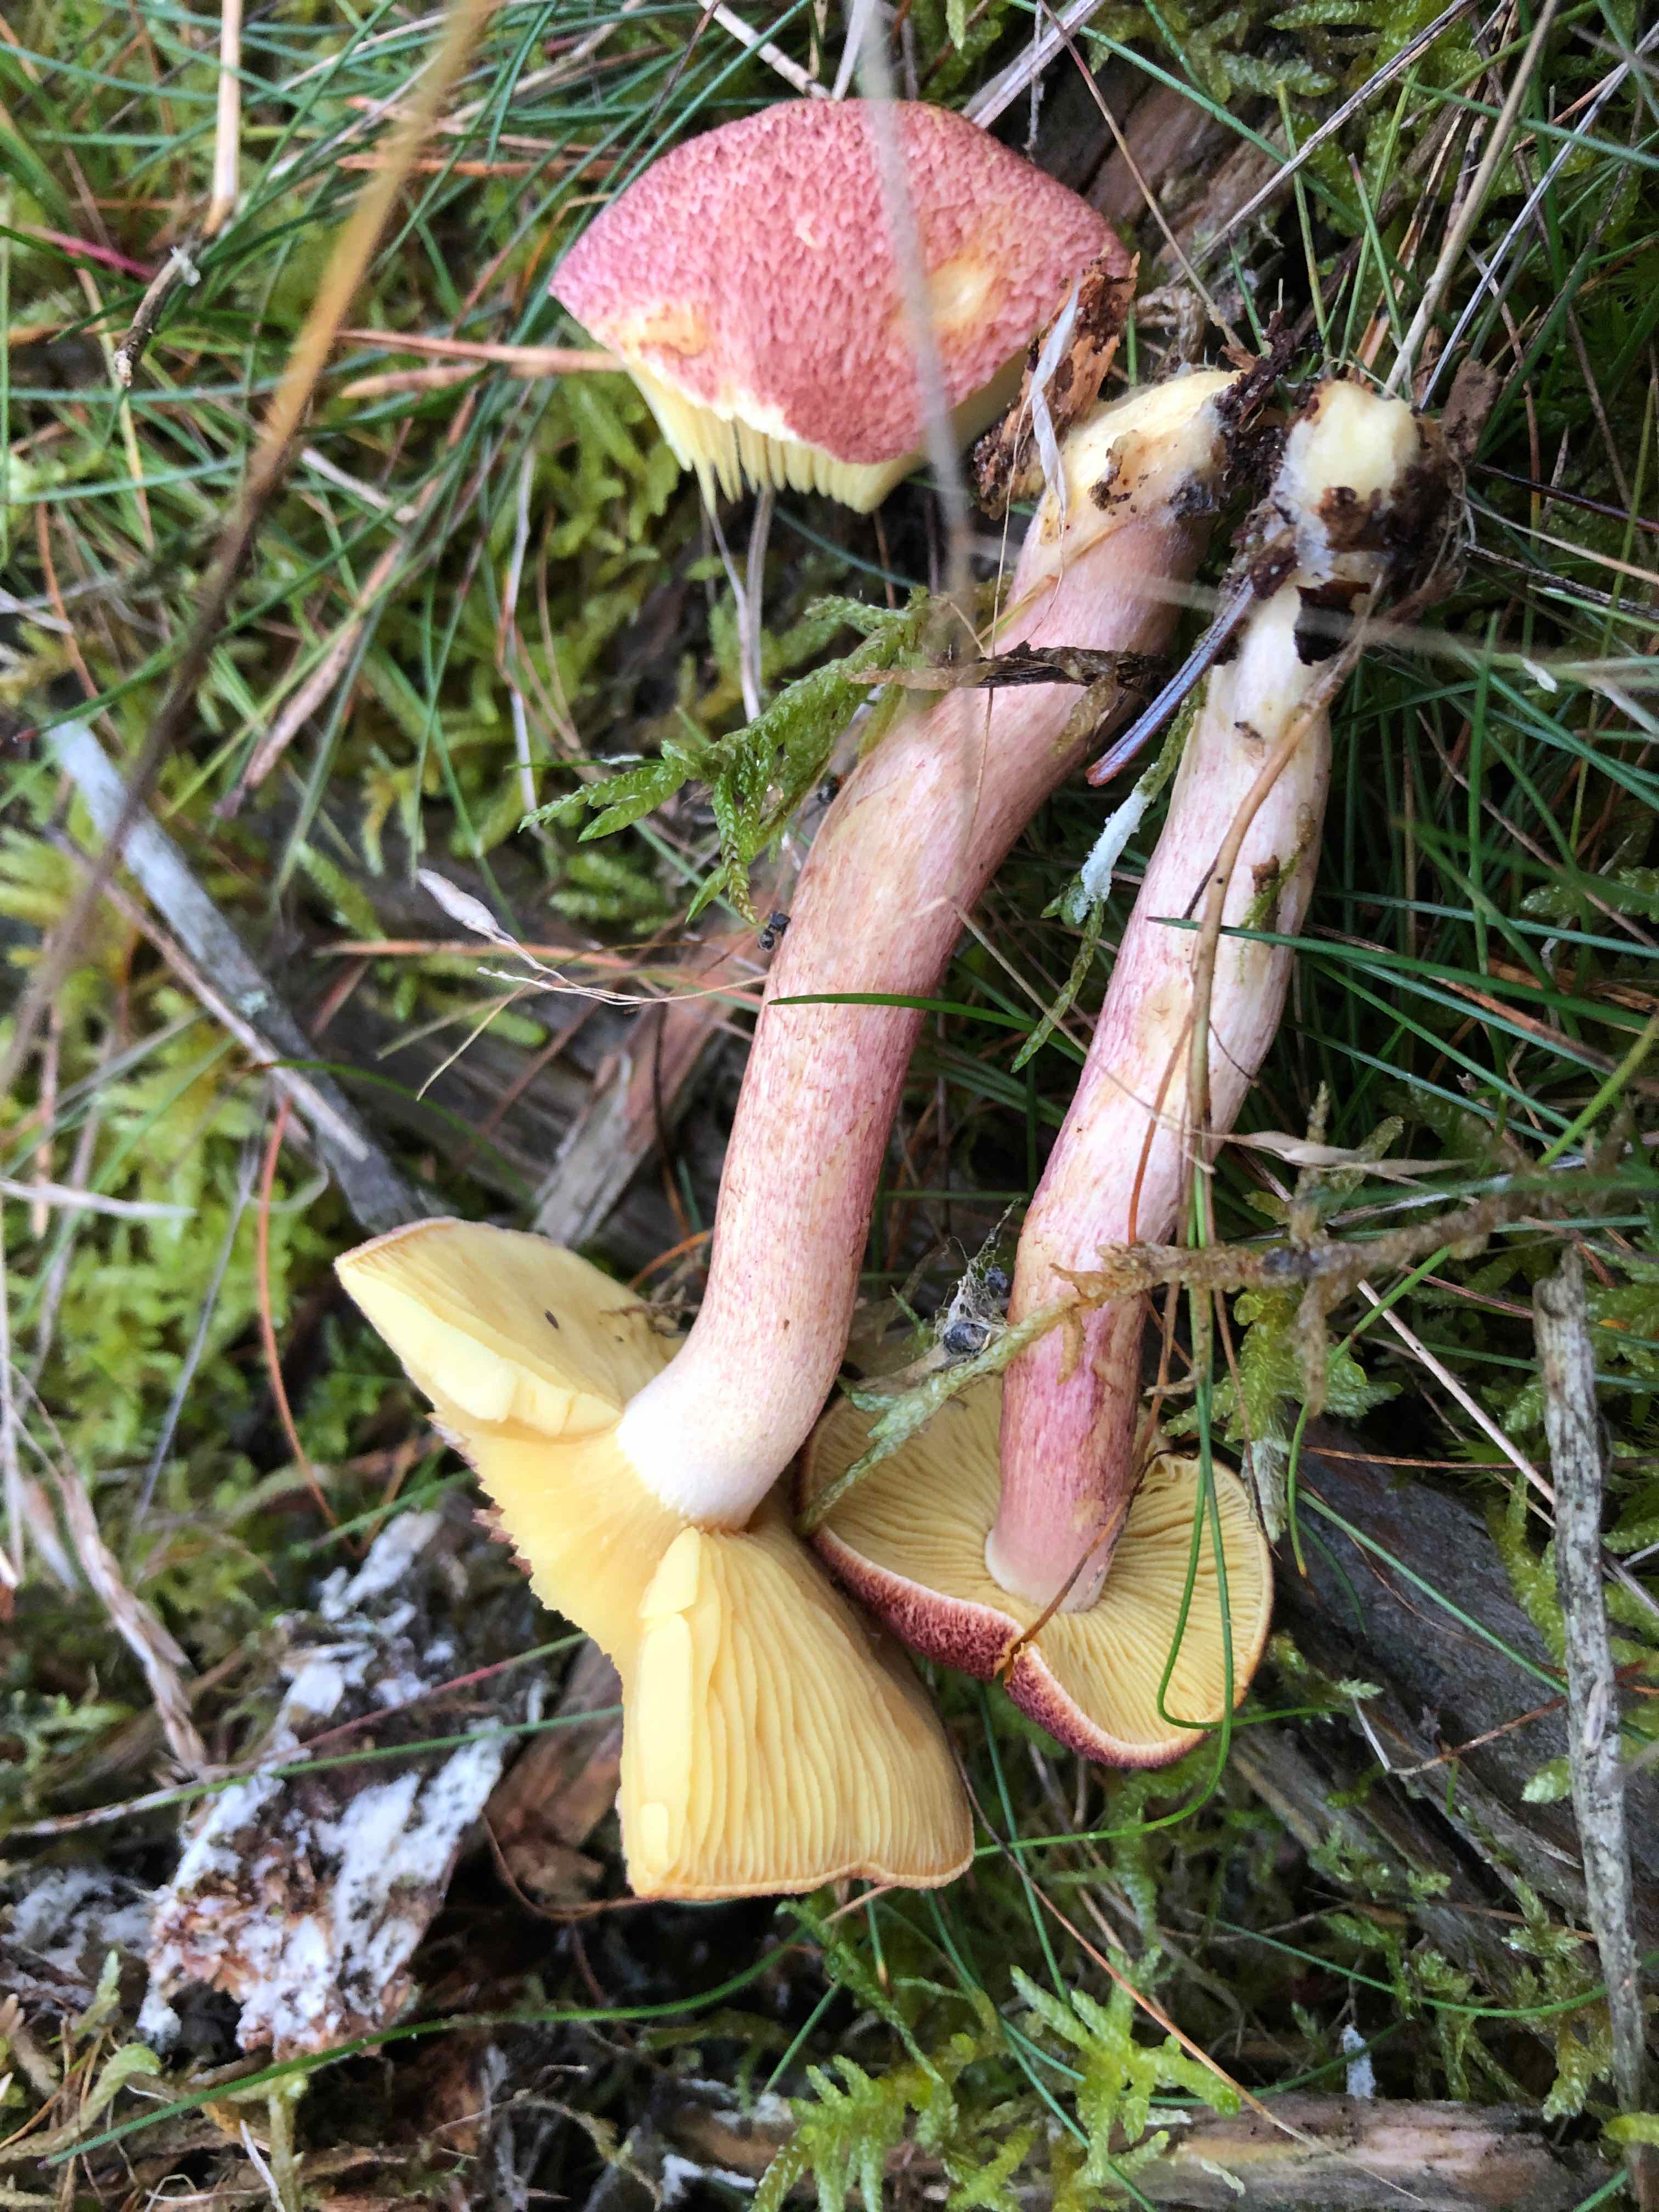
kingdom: Fungi
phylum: Basidiomycota
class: Agaricomycetes
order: Agaricales
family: Tricholomataceae
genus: Tricholomopsis
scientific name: Tricholomopsis rutilans
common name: purpur-væbnerhat
